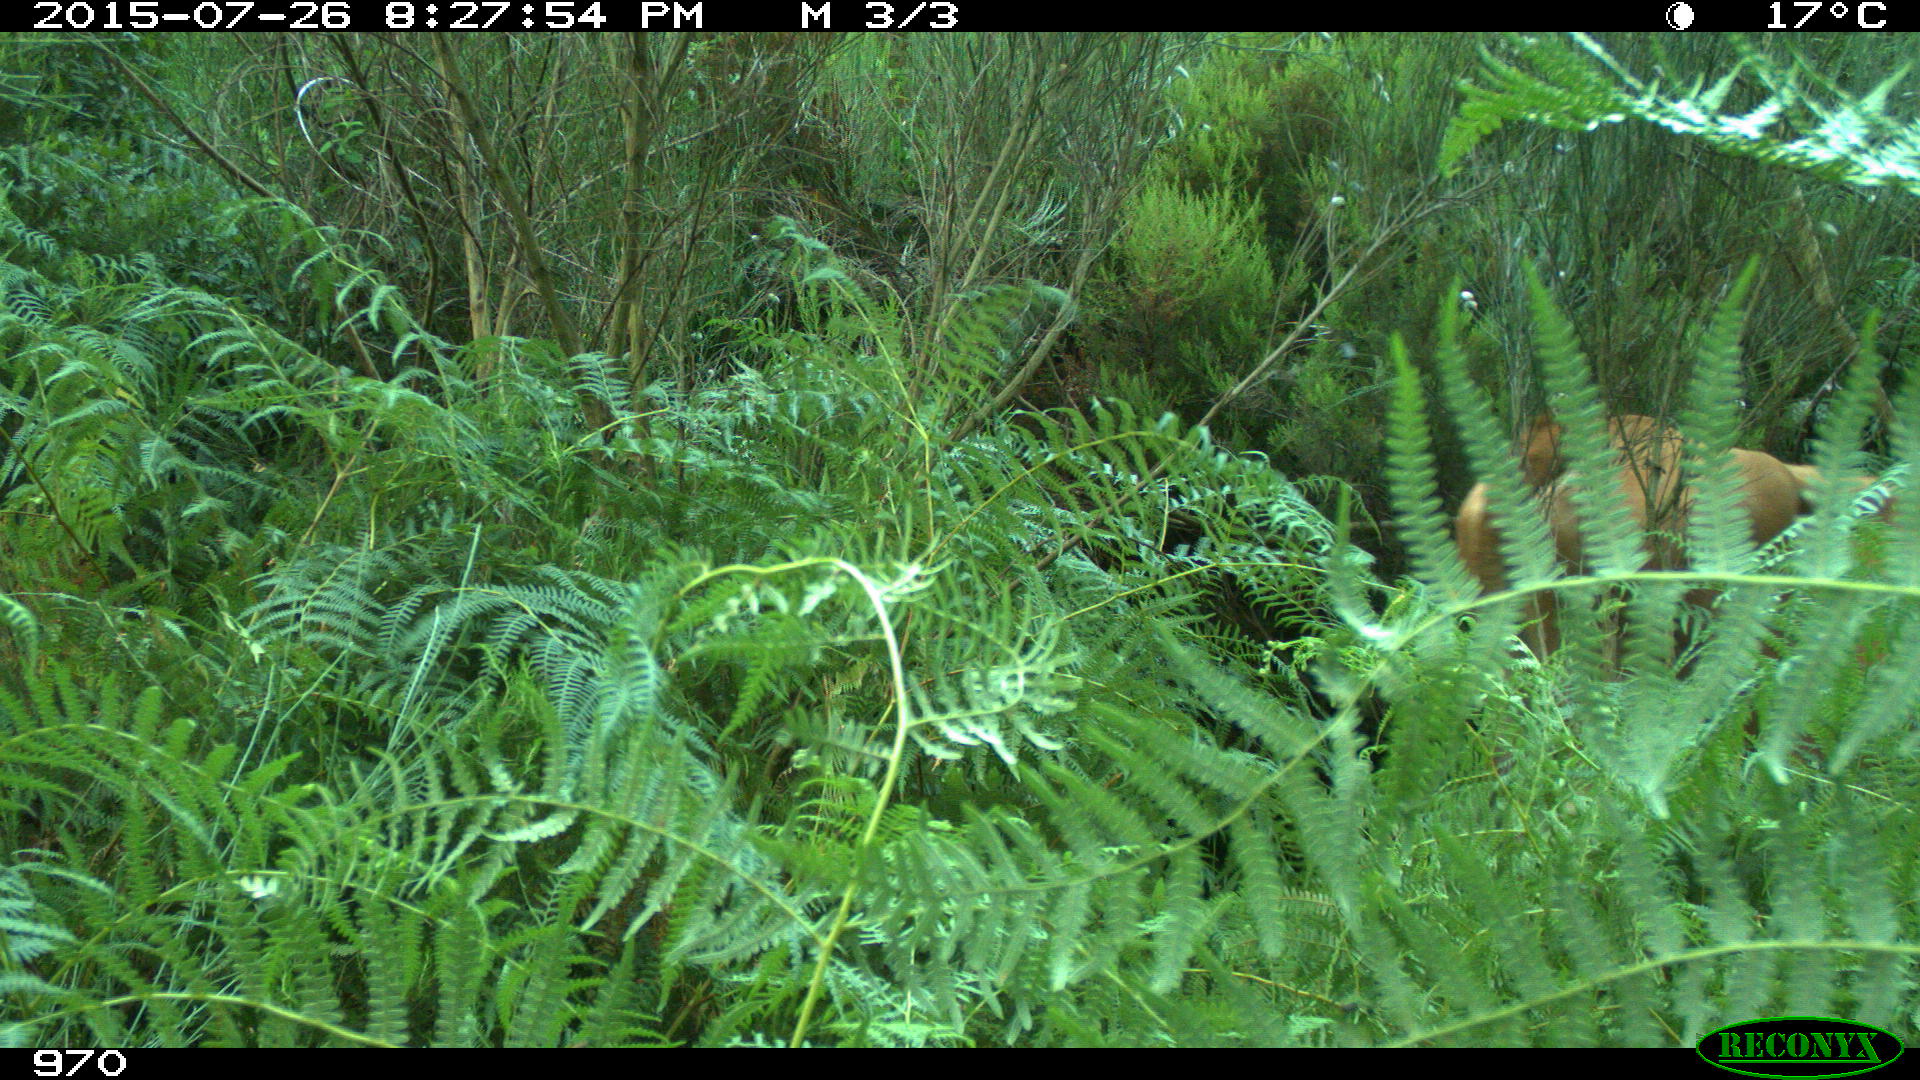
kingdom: Animalia
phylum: Chordata
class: Mammalia
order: Artiodactyla
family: Bovidae
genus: Bos
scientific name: Bos taurus
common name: Domesticated cattle
